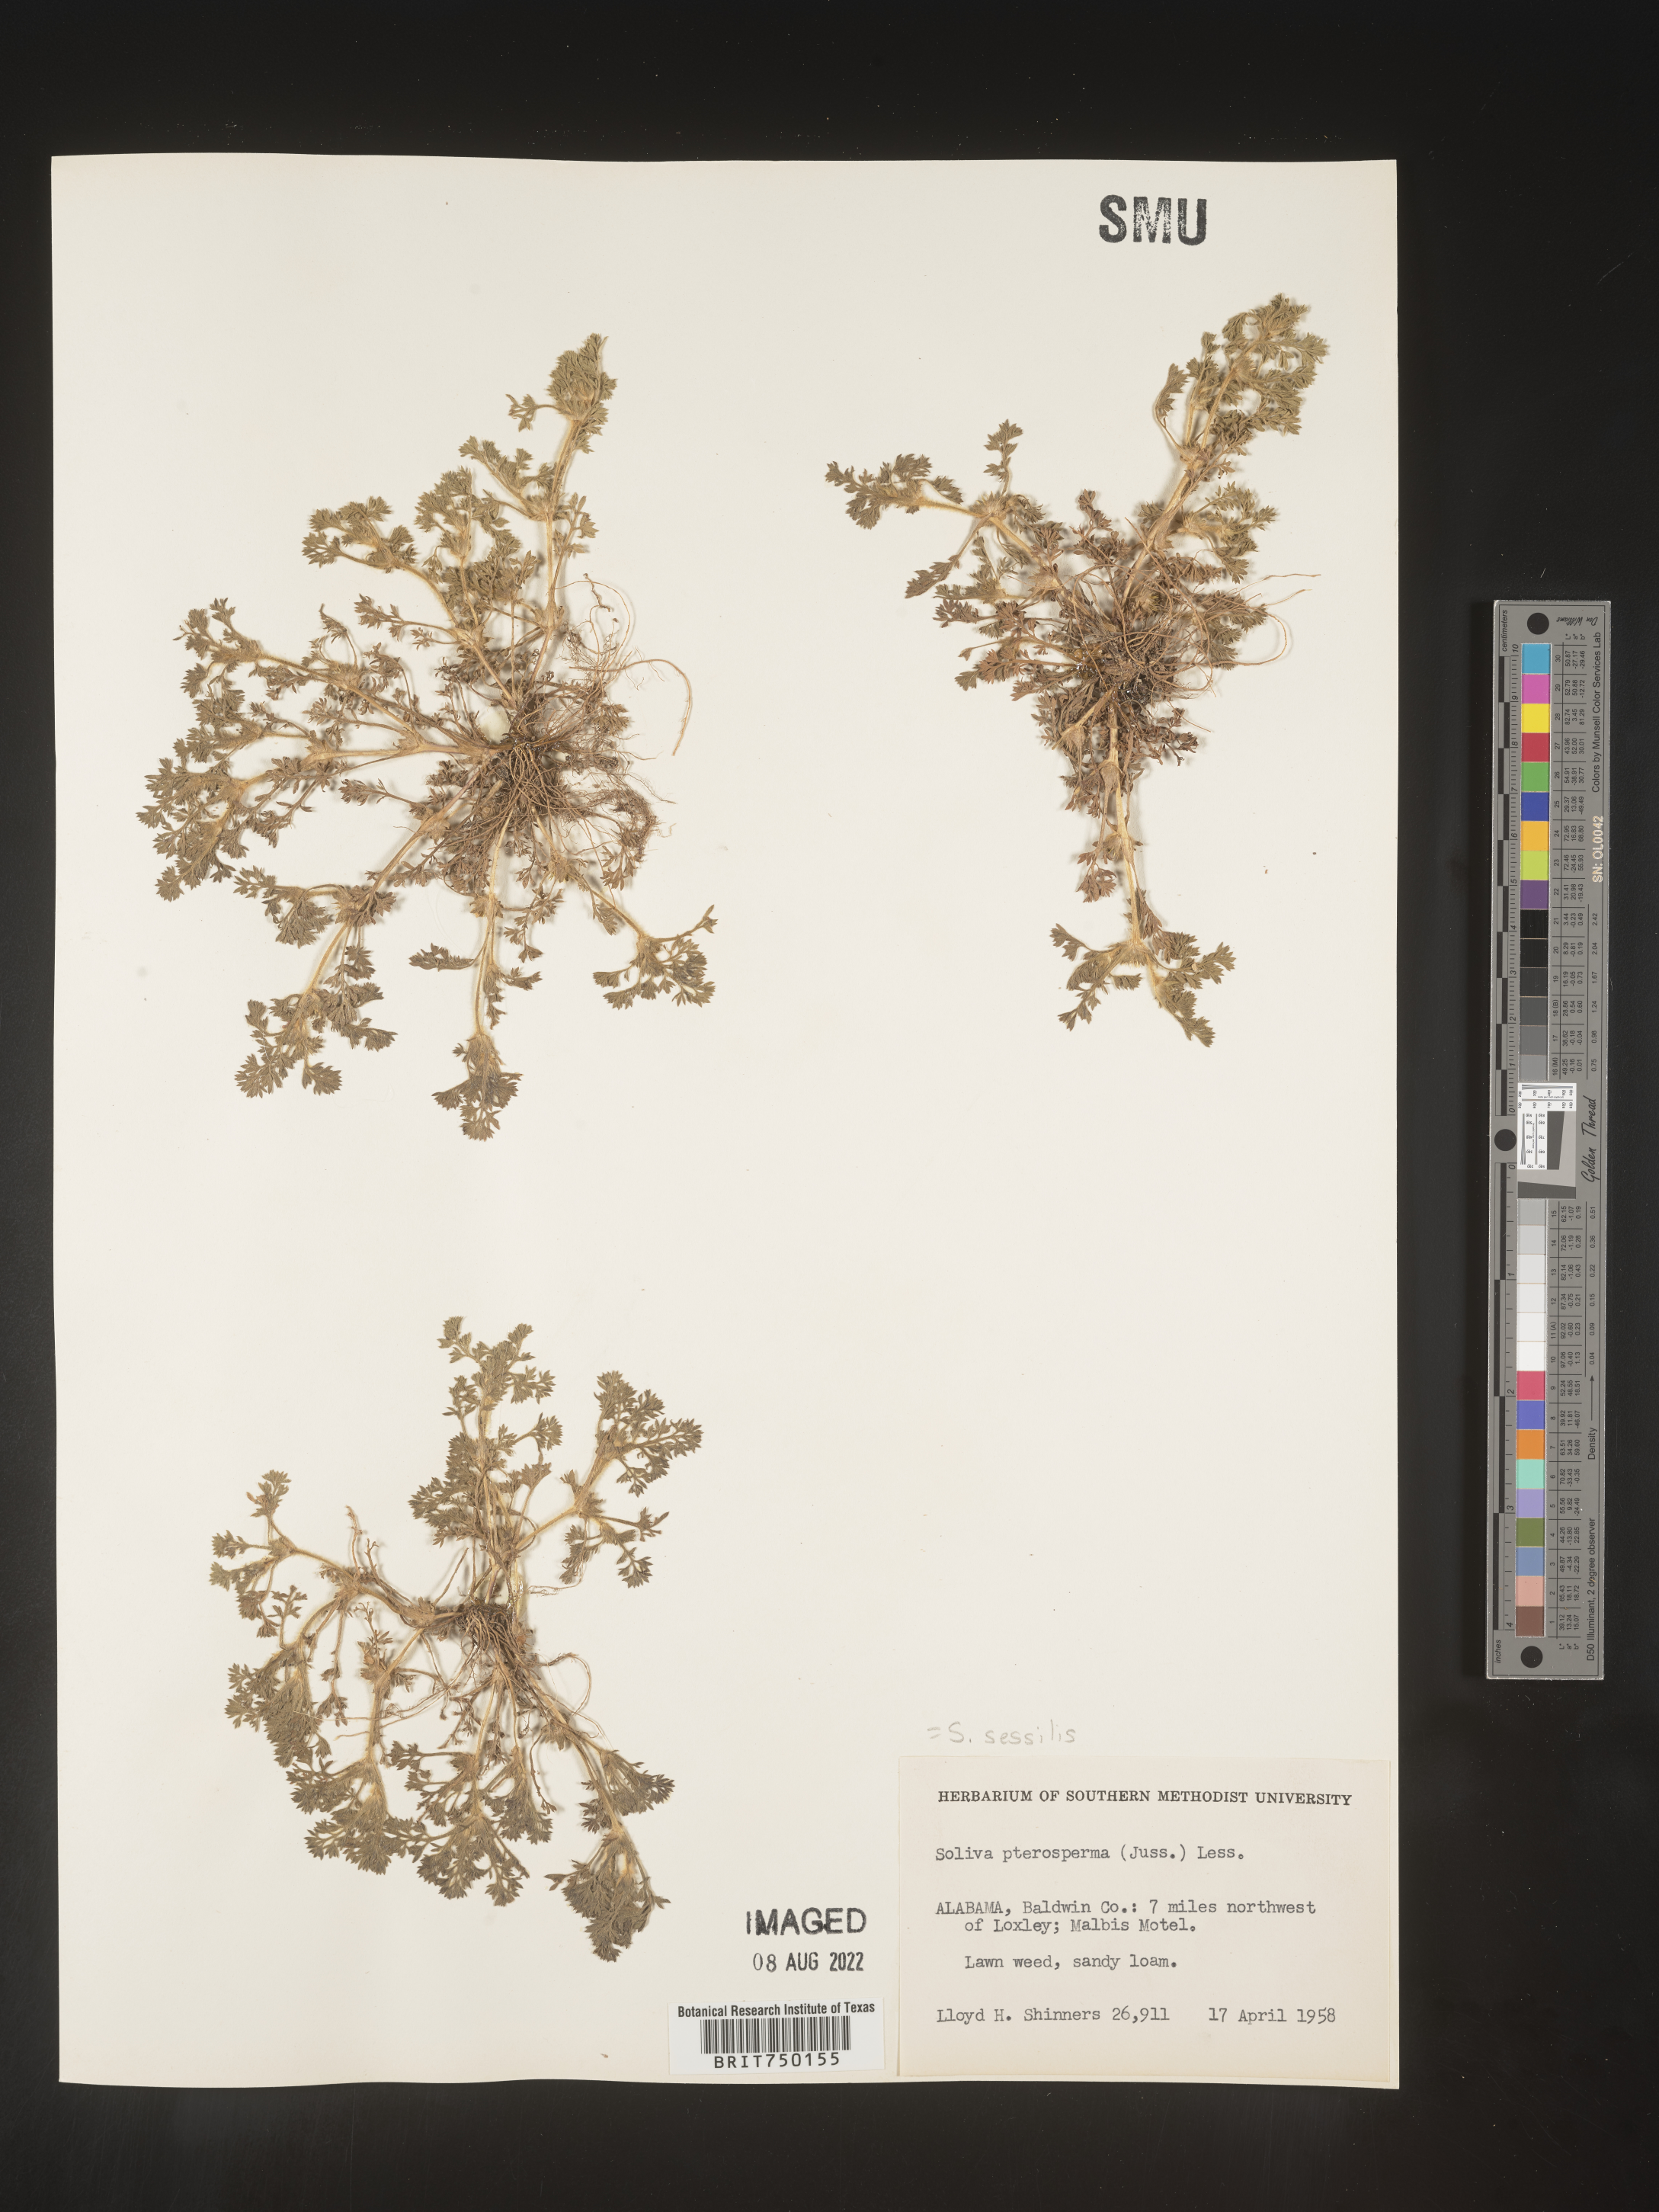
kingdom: Plantae
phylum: Tracheophyta
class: Magnoliopsida
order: Asterales
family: Asteraceae
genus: Soliva
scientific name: Soliva sessilis
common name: Field burrweed
